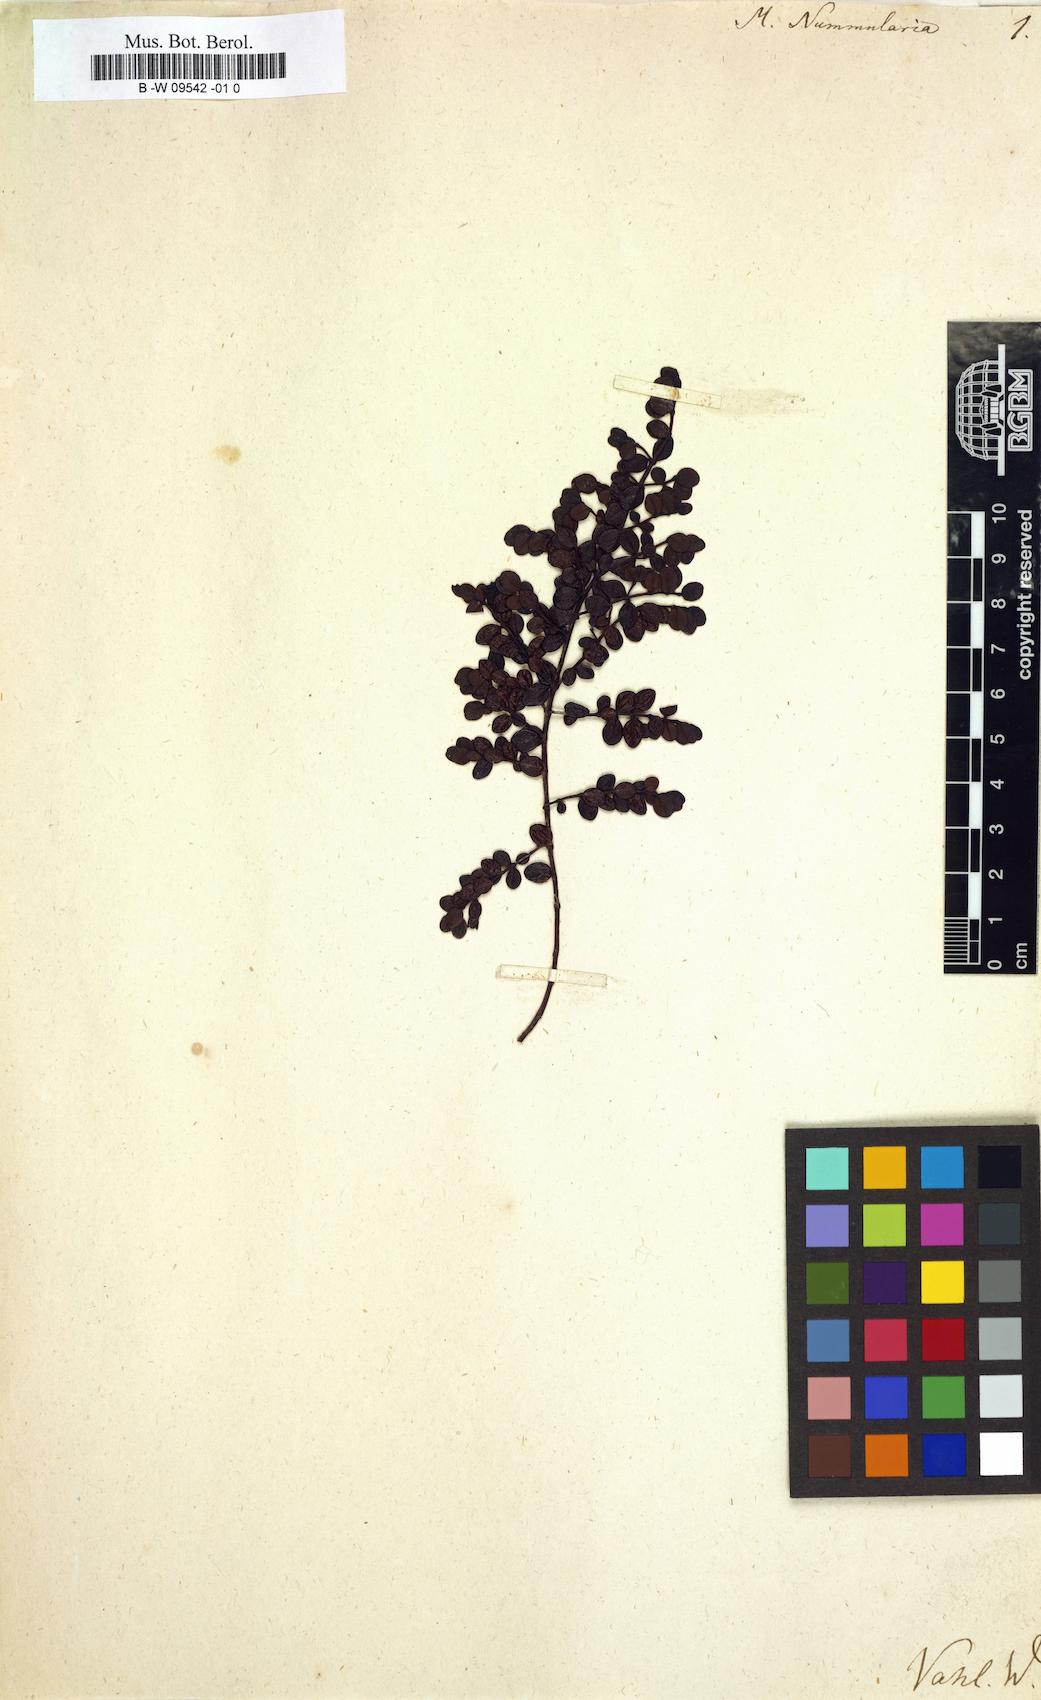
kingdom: Plantae
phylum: Tracheophyta
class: Magnoliopsida
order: Myrtales
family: Myrtaceae
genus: Myrteola
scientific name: Myrteola nummularia
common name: Cranberry-myrtle
